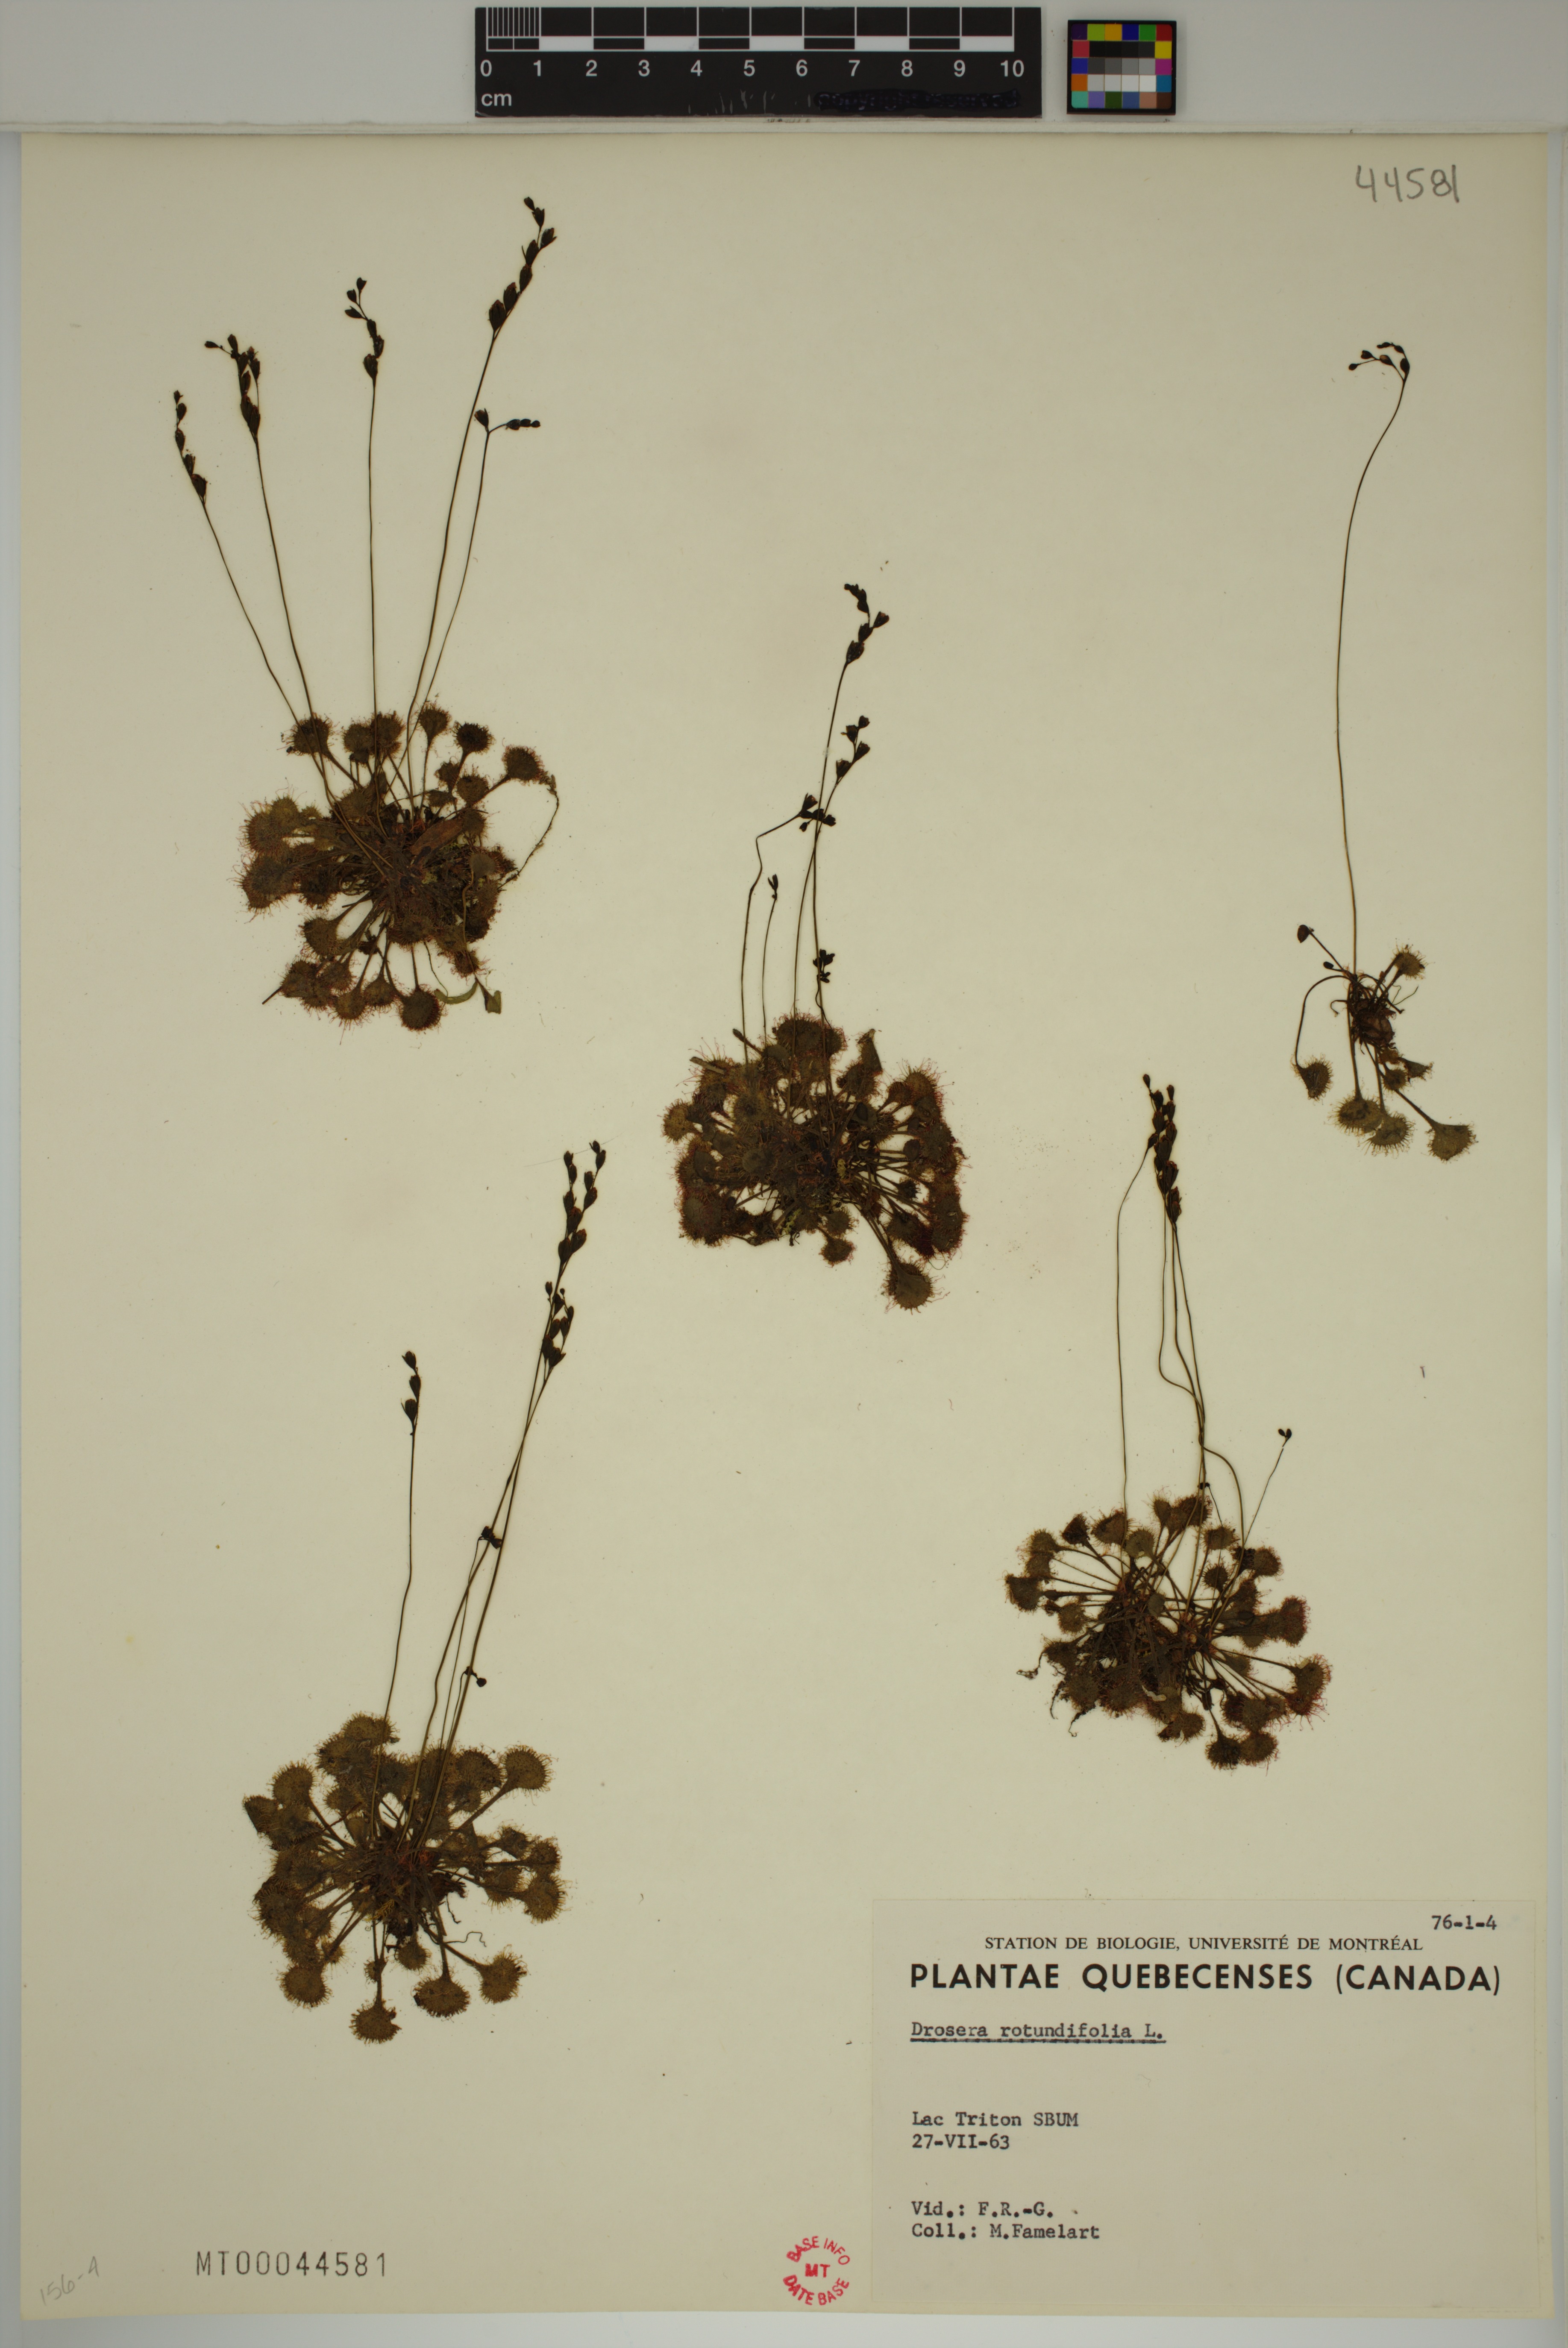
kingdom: Plantae
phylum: Tracheophyta
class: Magnoliopsida
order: Caryophyllales
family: Droseraceae
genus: Drosera
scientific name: Drosera rotundifolia
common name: Round-leaved sundew
